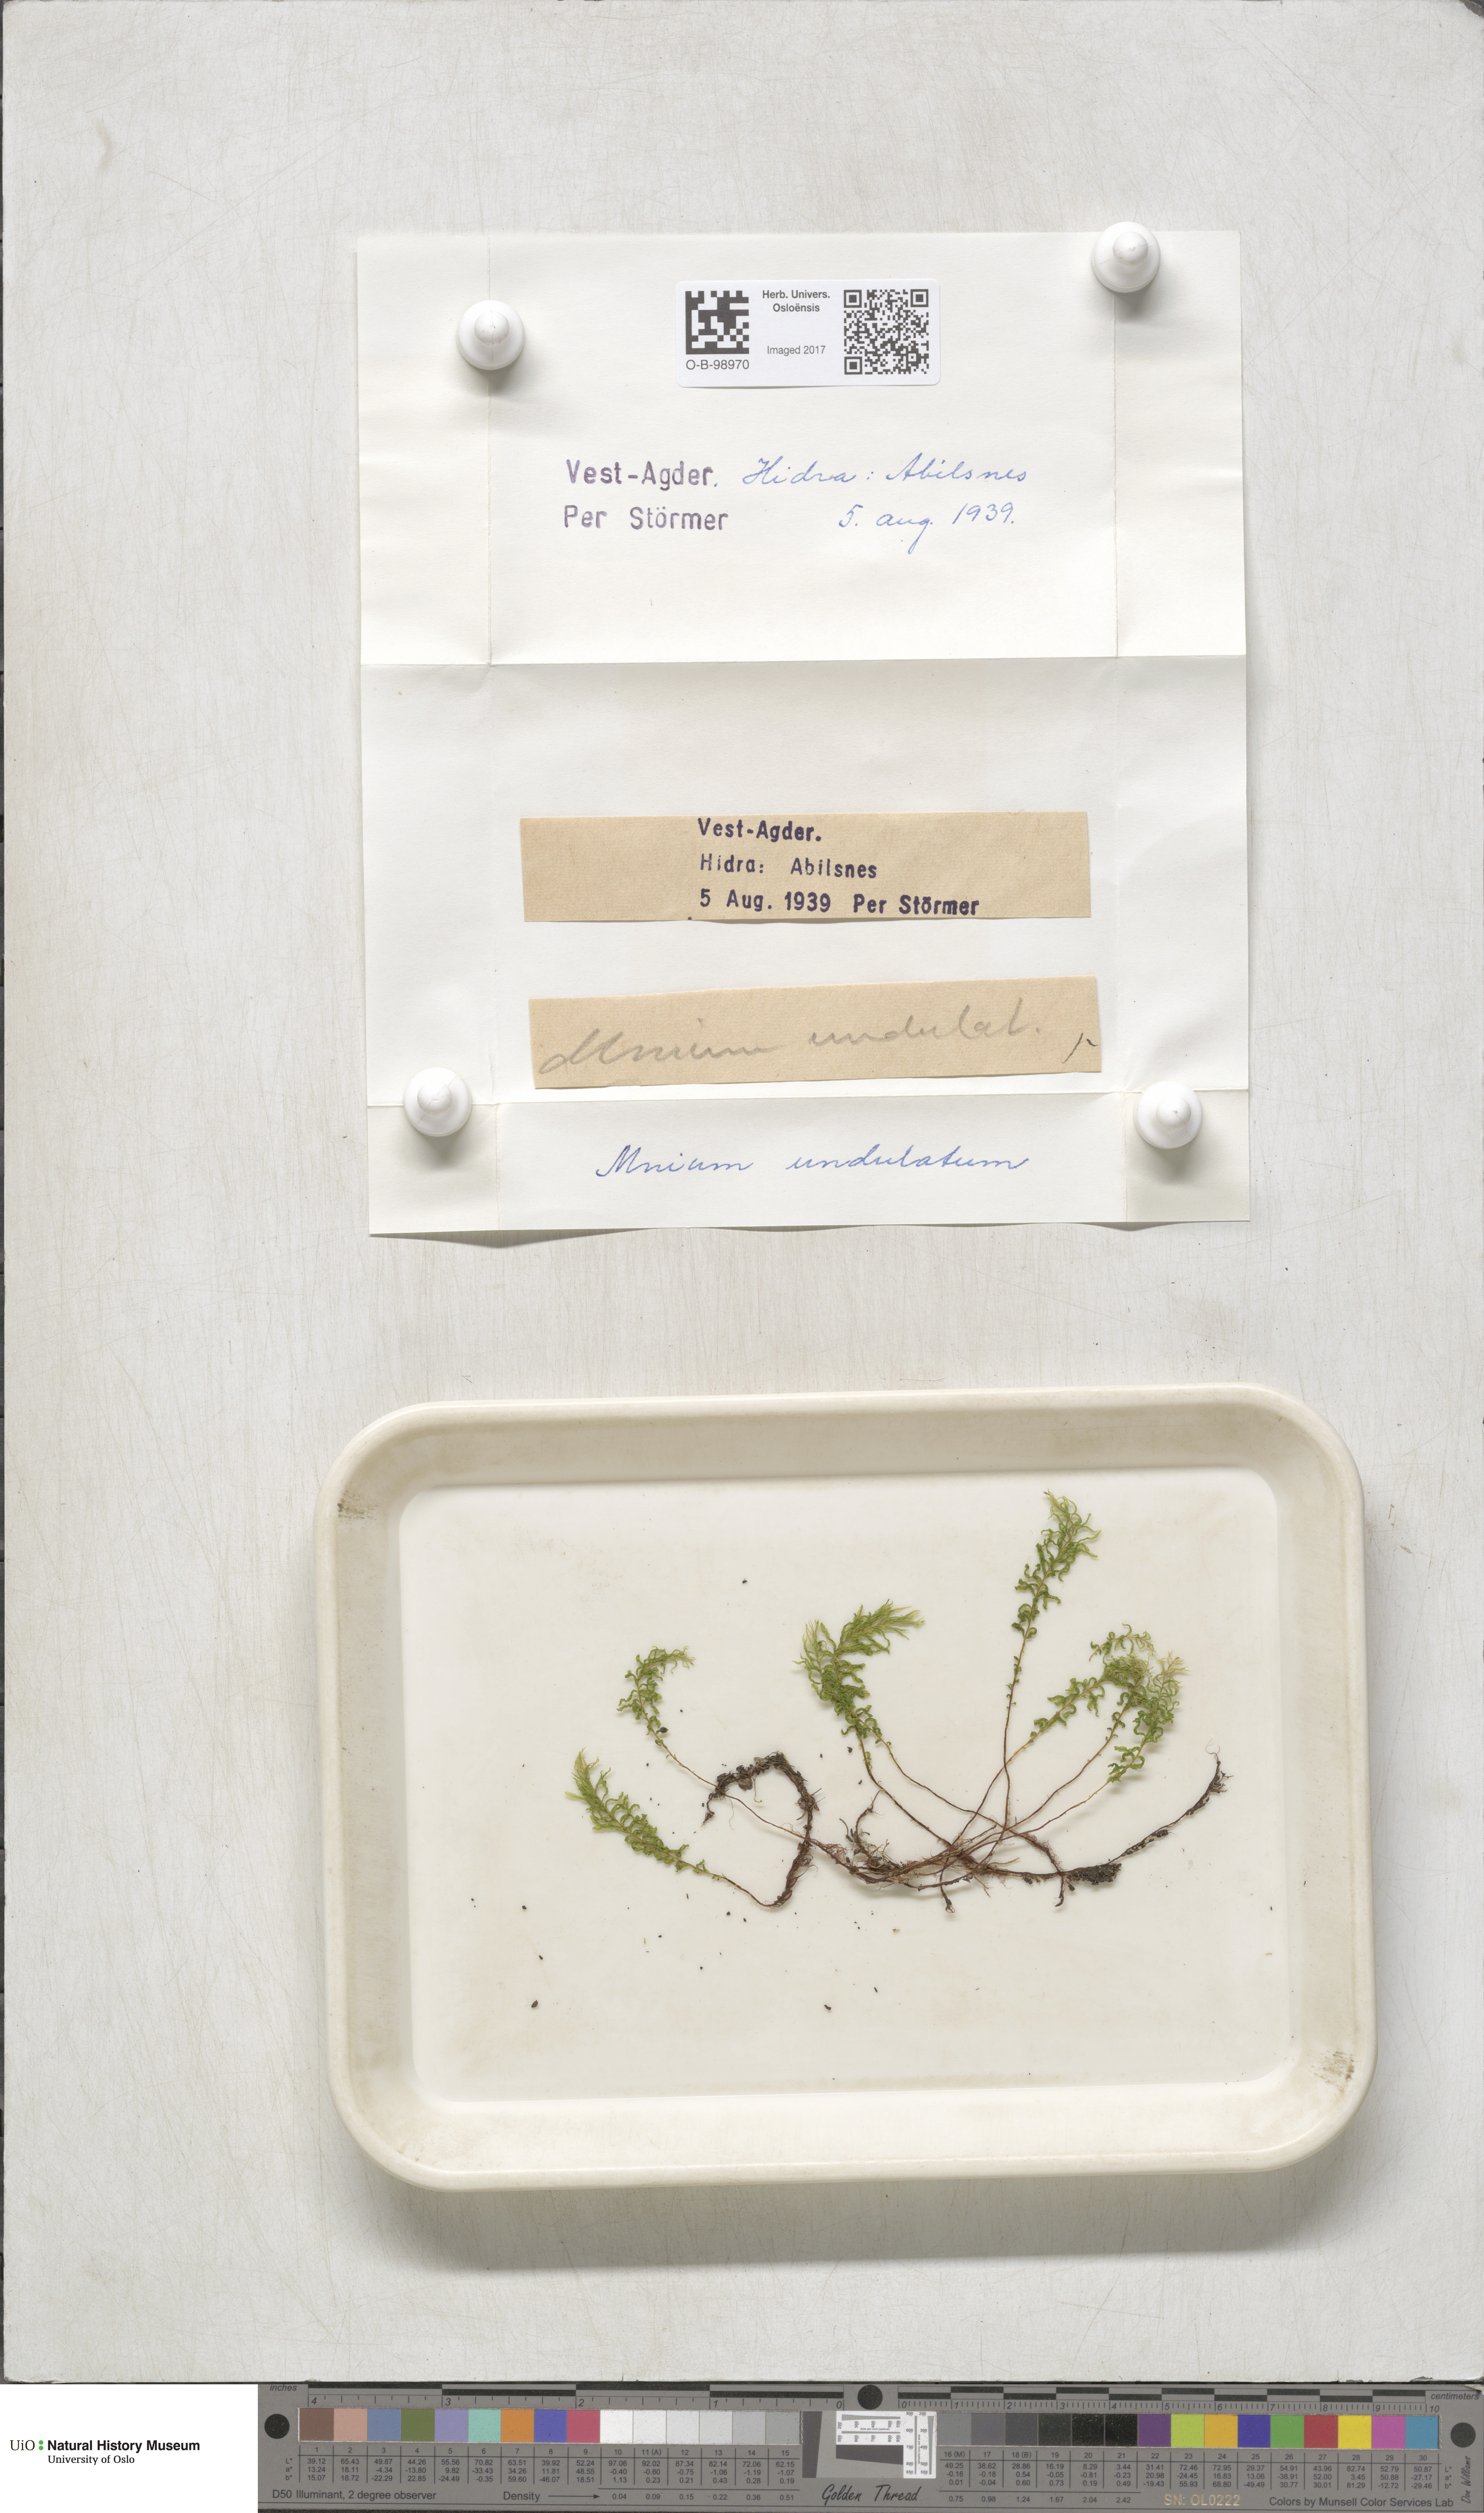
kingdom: Plantae
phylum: Bryophyta
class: Bryopsida
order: Bryales
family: Mniaceae
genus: Plagiomnium
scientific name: Plagiomnium undulatum
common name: Hart's-tongue thyme-moss
